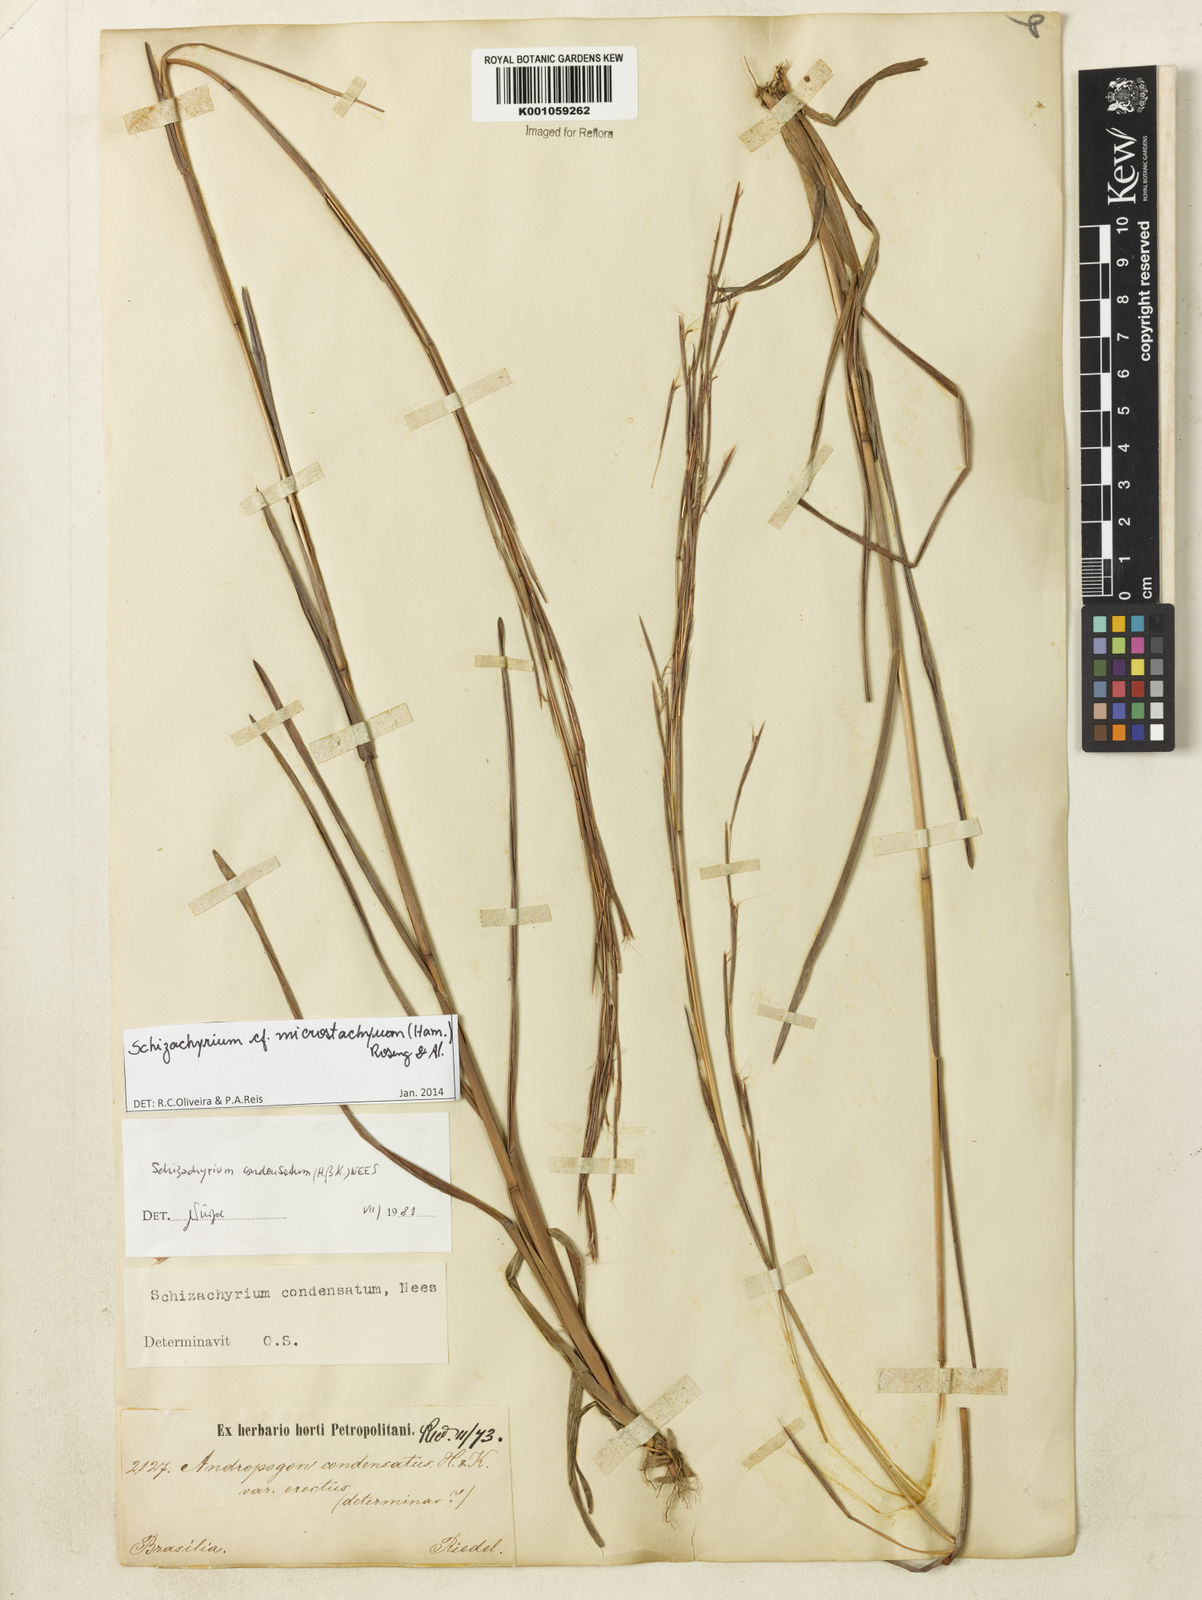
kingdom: Plantae
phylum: Tracheophyta
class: Liliopsida
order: Poales
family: Poaceae
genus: Schizachyrium
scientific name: Schizachyrium
